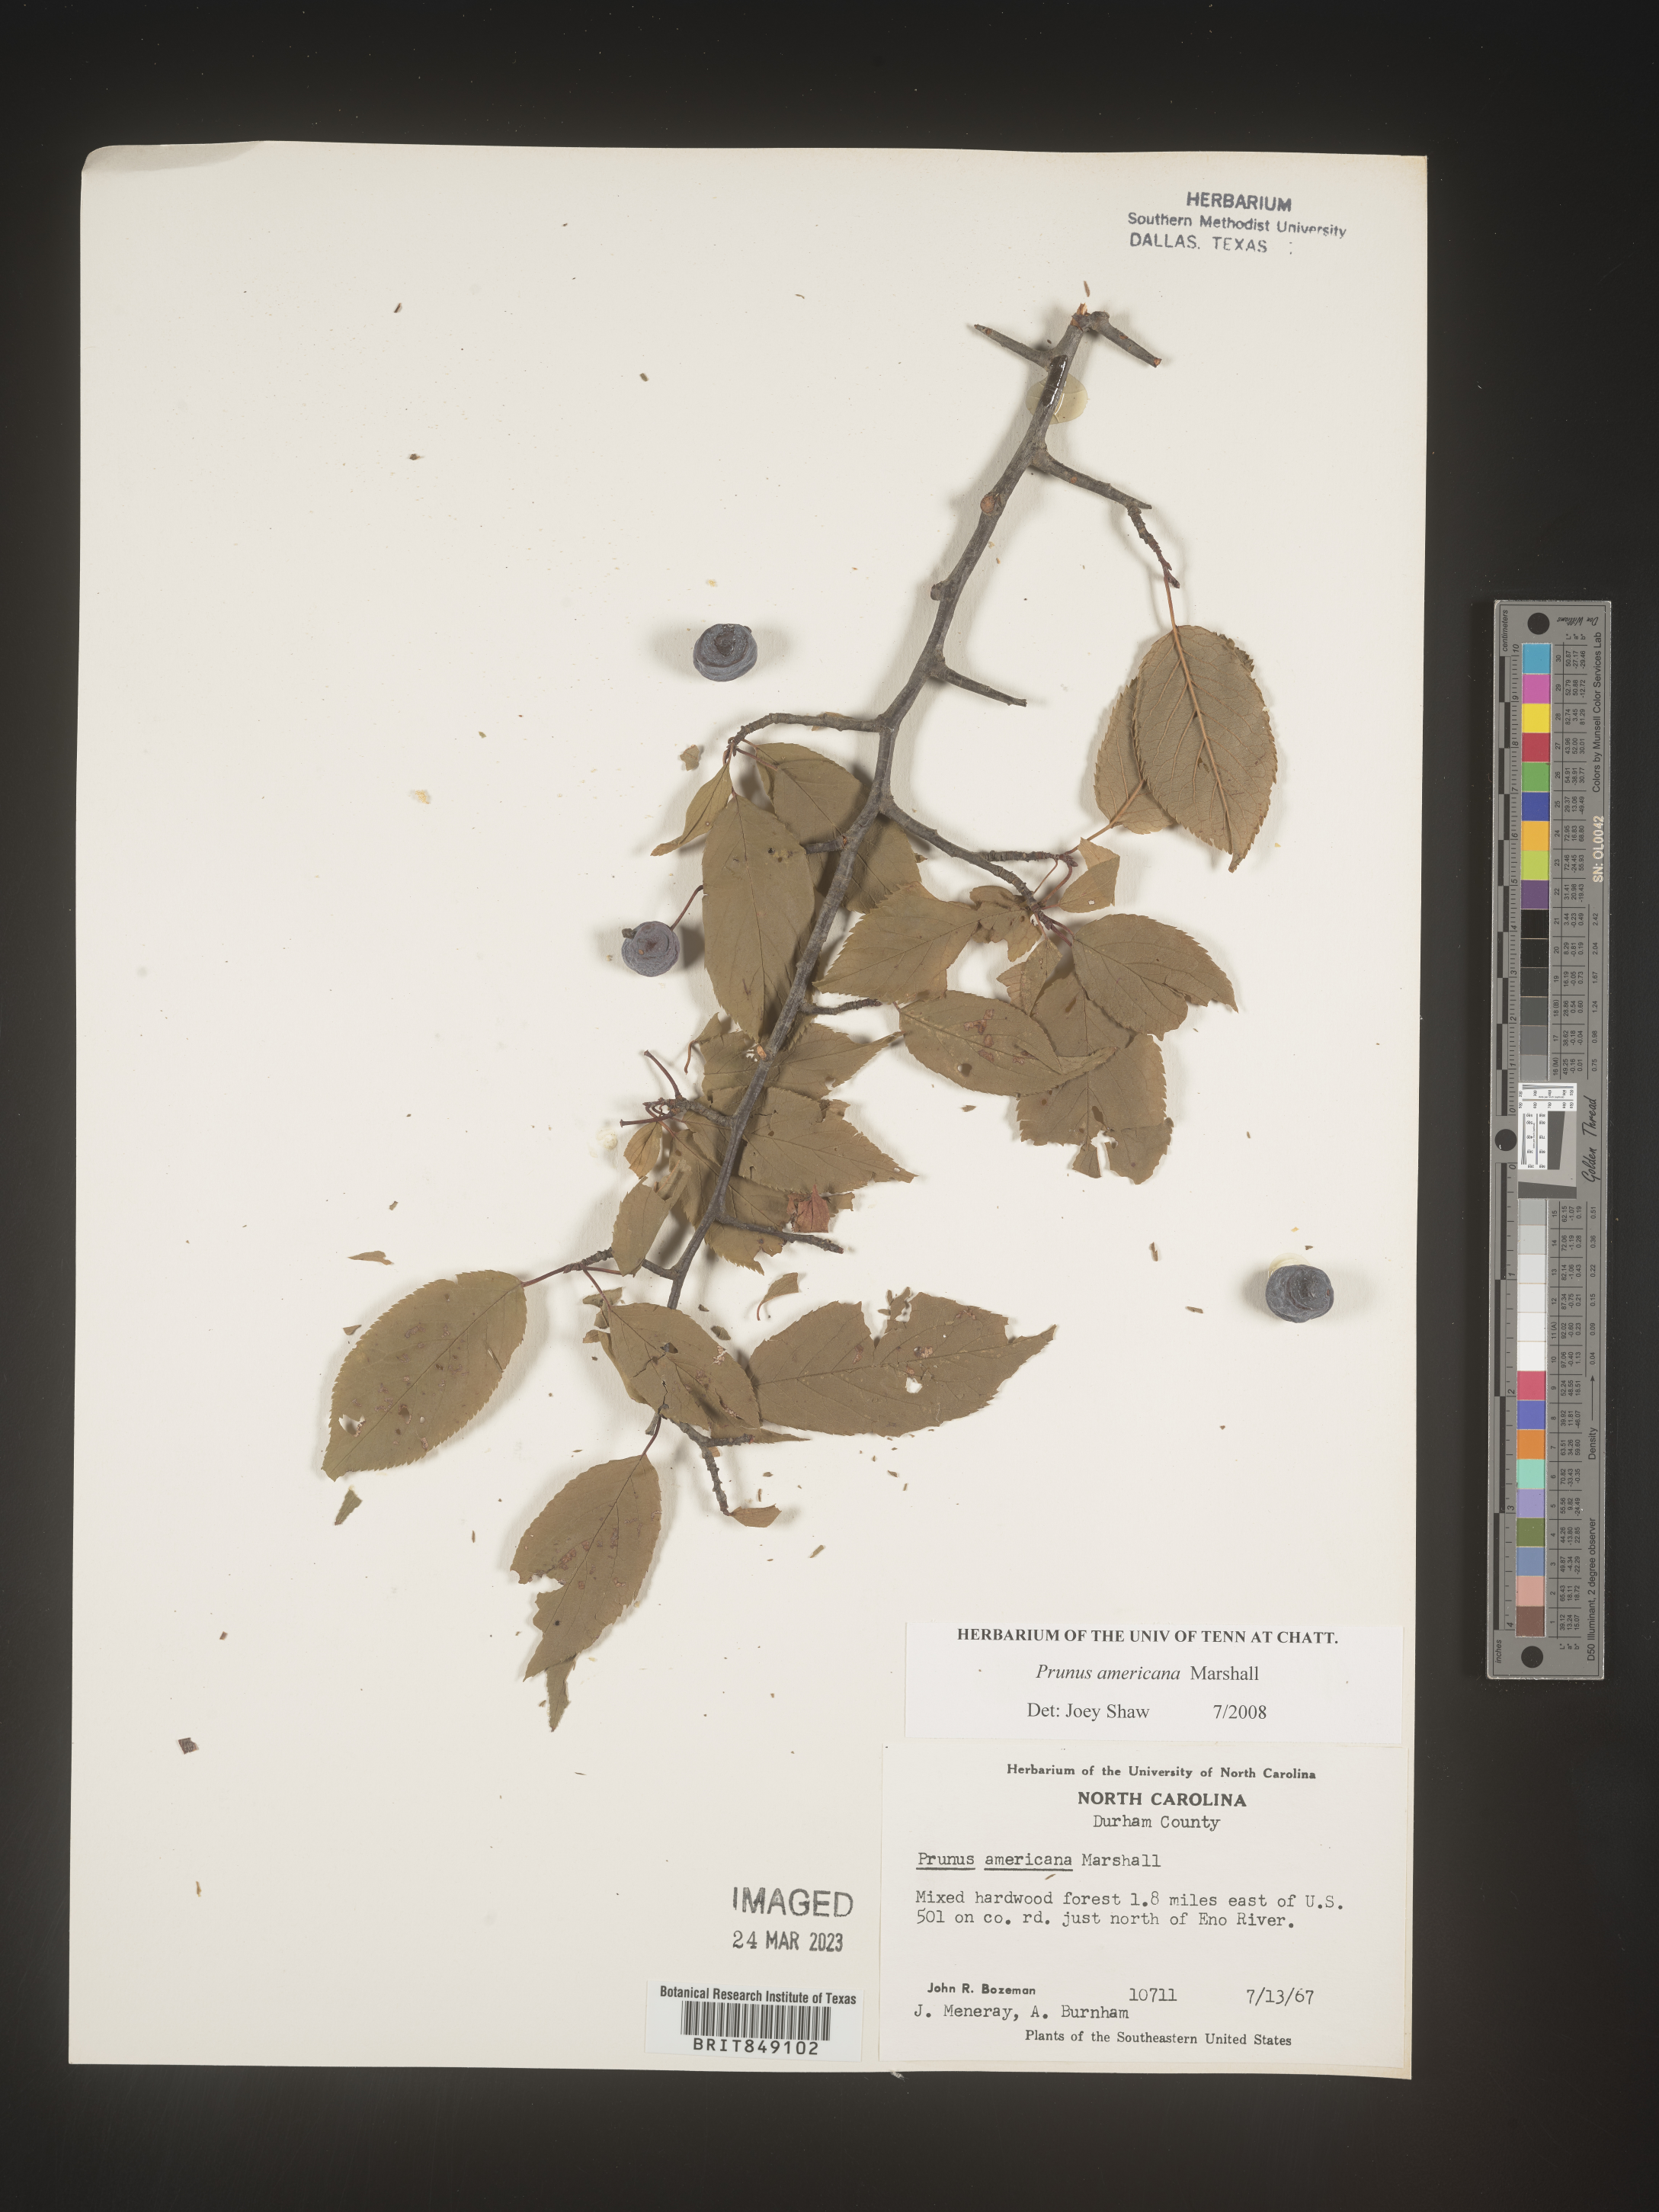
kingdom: Plantae
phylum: Tracheophyta
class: Magnoliopsida
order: Rosales
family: Rosaceae
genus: Prunus
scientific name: Prunus americana
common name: American plum
